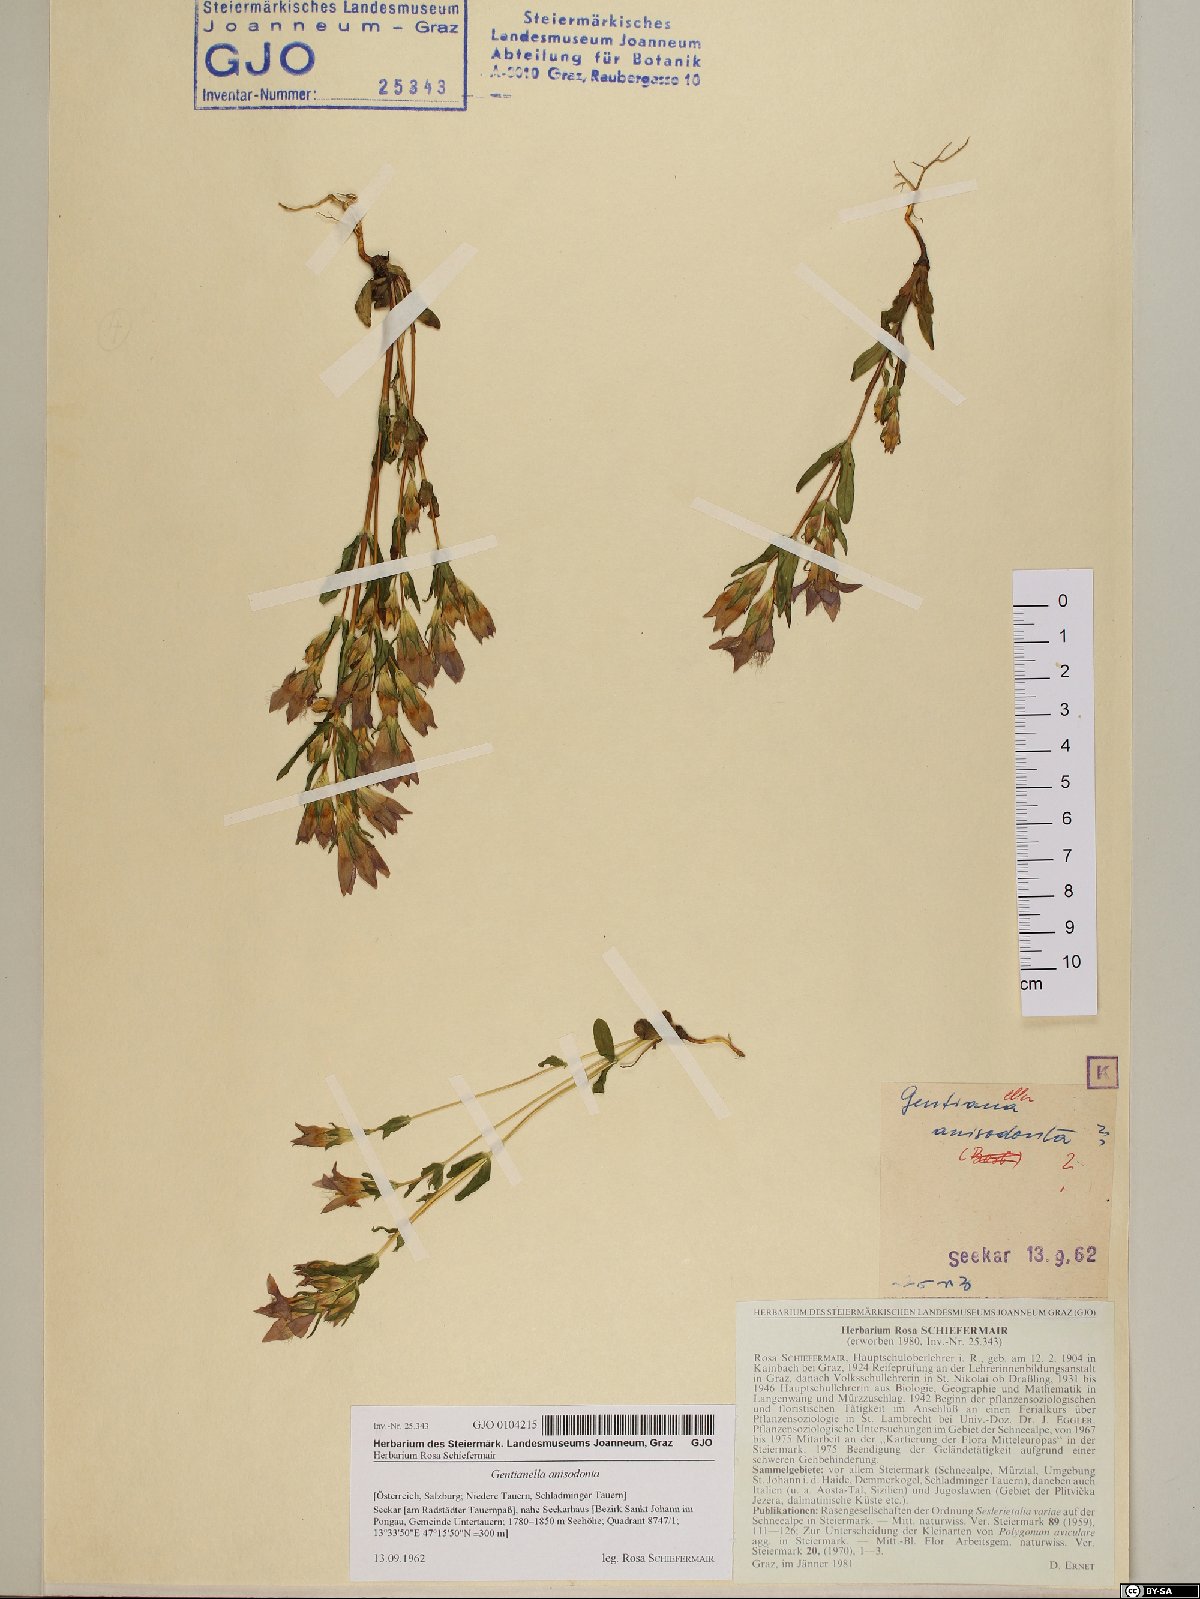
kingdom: Plantae
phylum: Tracheophyta
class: Magnoliopsida
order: Gentianales
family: Gentianaceae
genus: Gentianella
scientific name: Gentianella anisodonta
